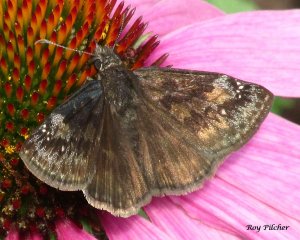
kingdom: Animalia
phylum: Arthropoda
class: Insecta
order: Lepidoptera
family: Hesperiidae
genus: Gesta
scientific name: Gesta
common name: Wild Indigo Duskywing
